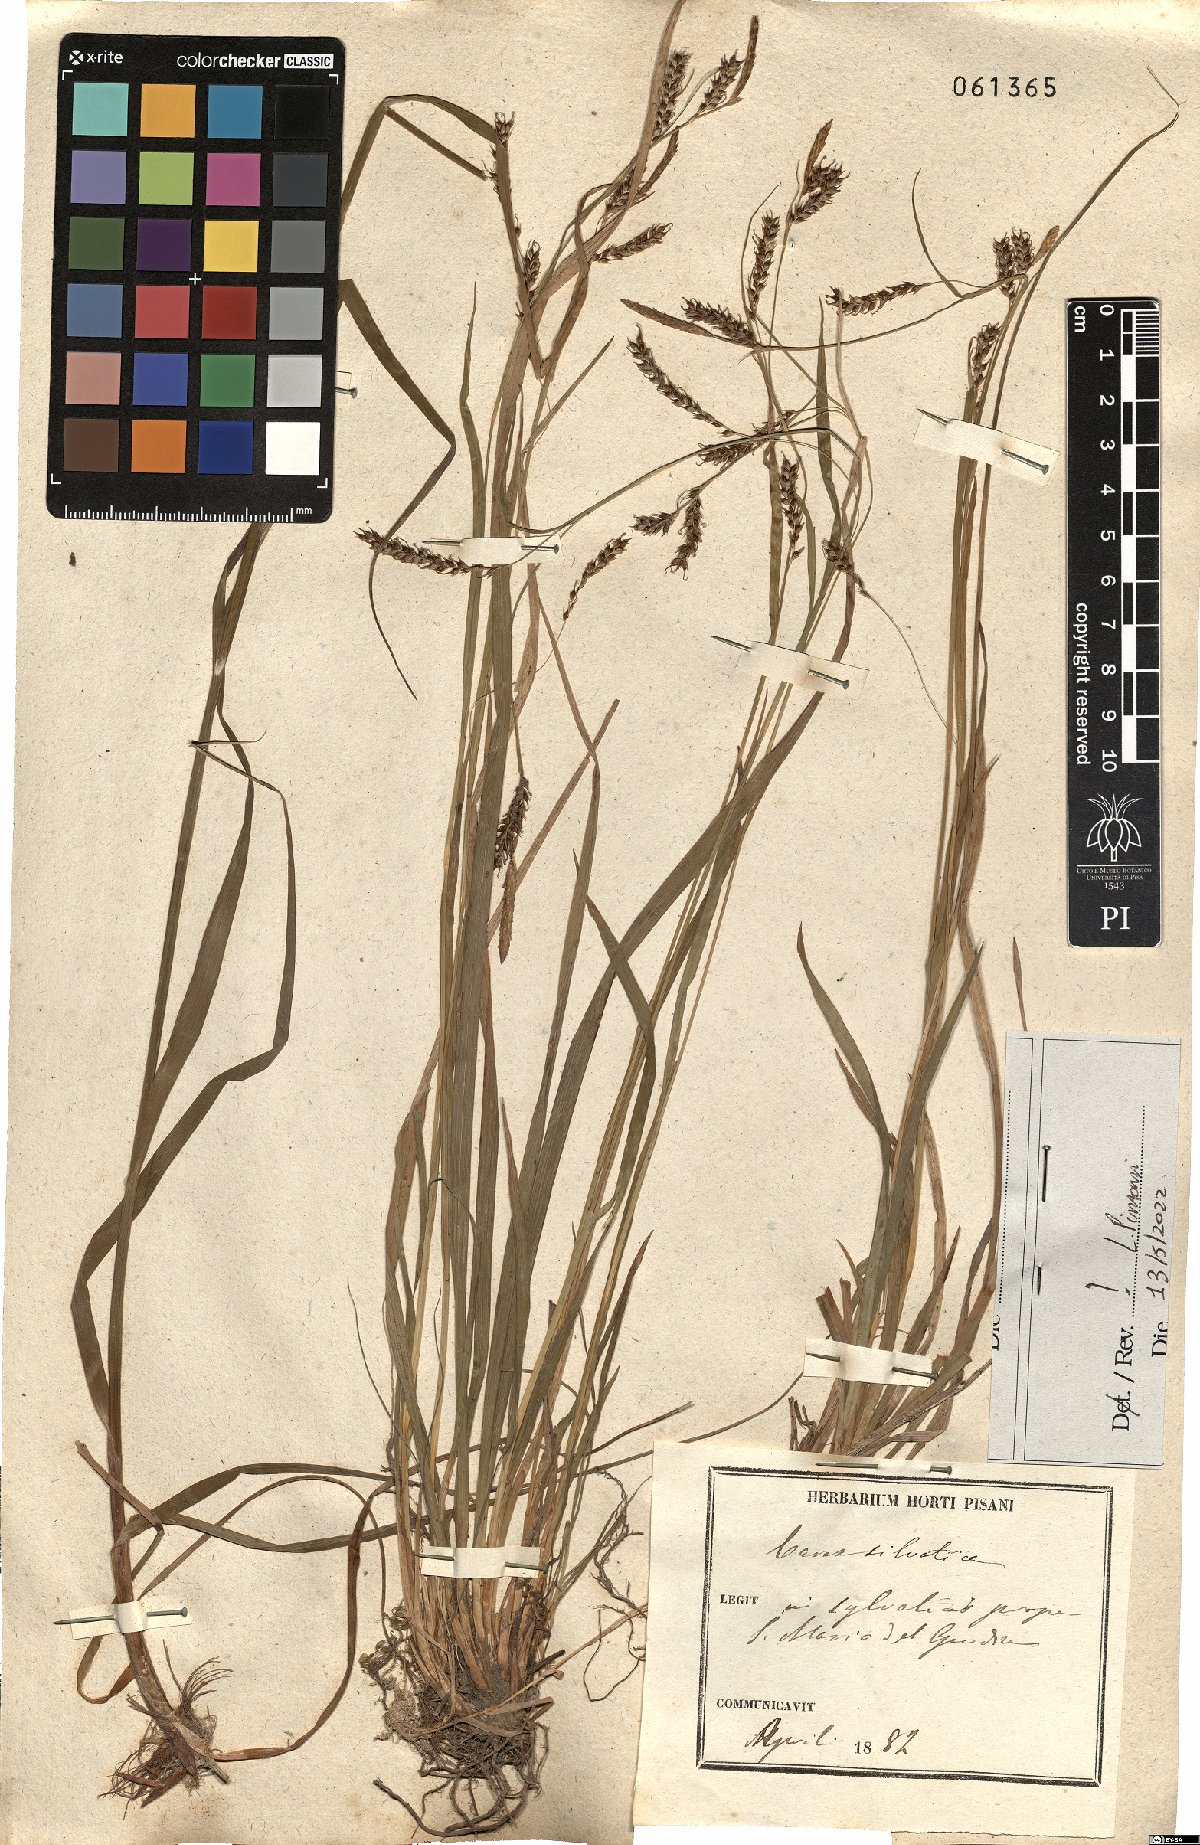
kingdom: Plantae
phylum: Tracheophyta
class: Liliopsida
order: Poales
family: Cyperaceae
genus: Carex
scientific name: Carex sylvatica
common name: Wood-sedge
